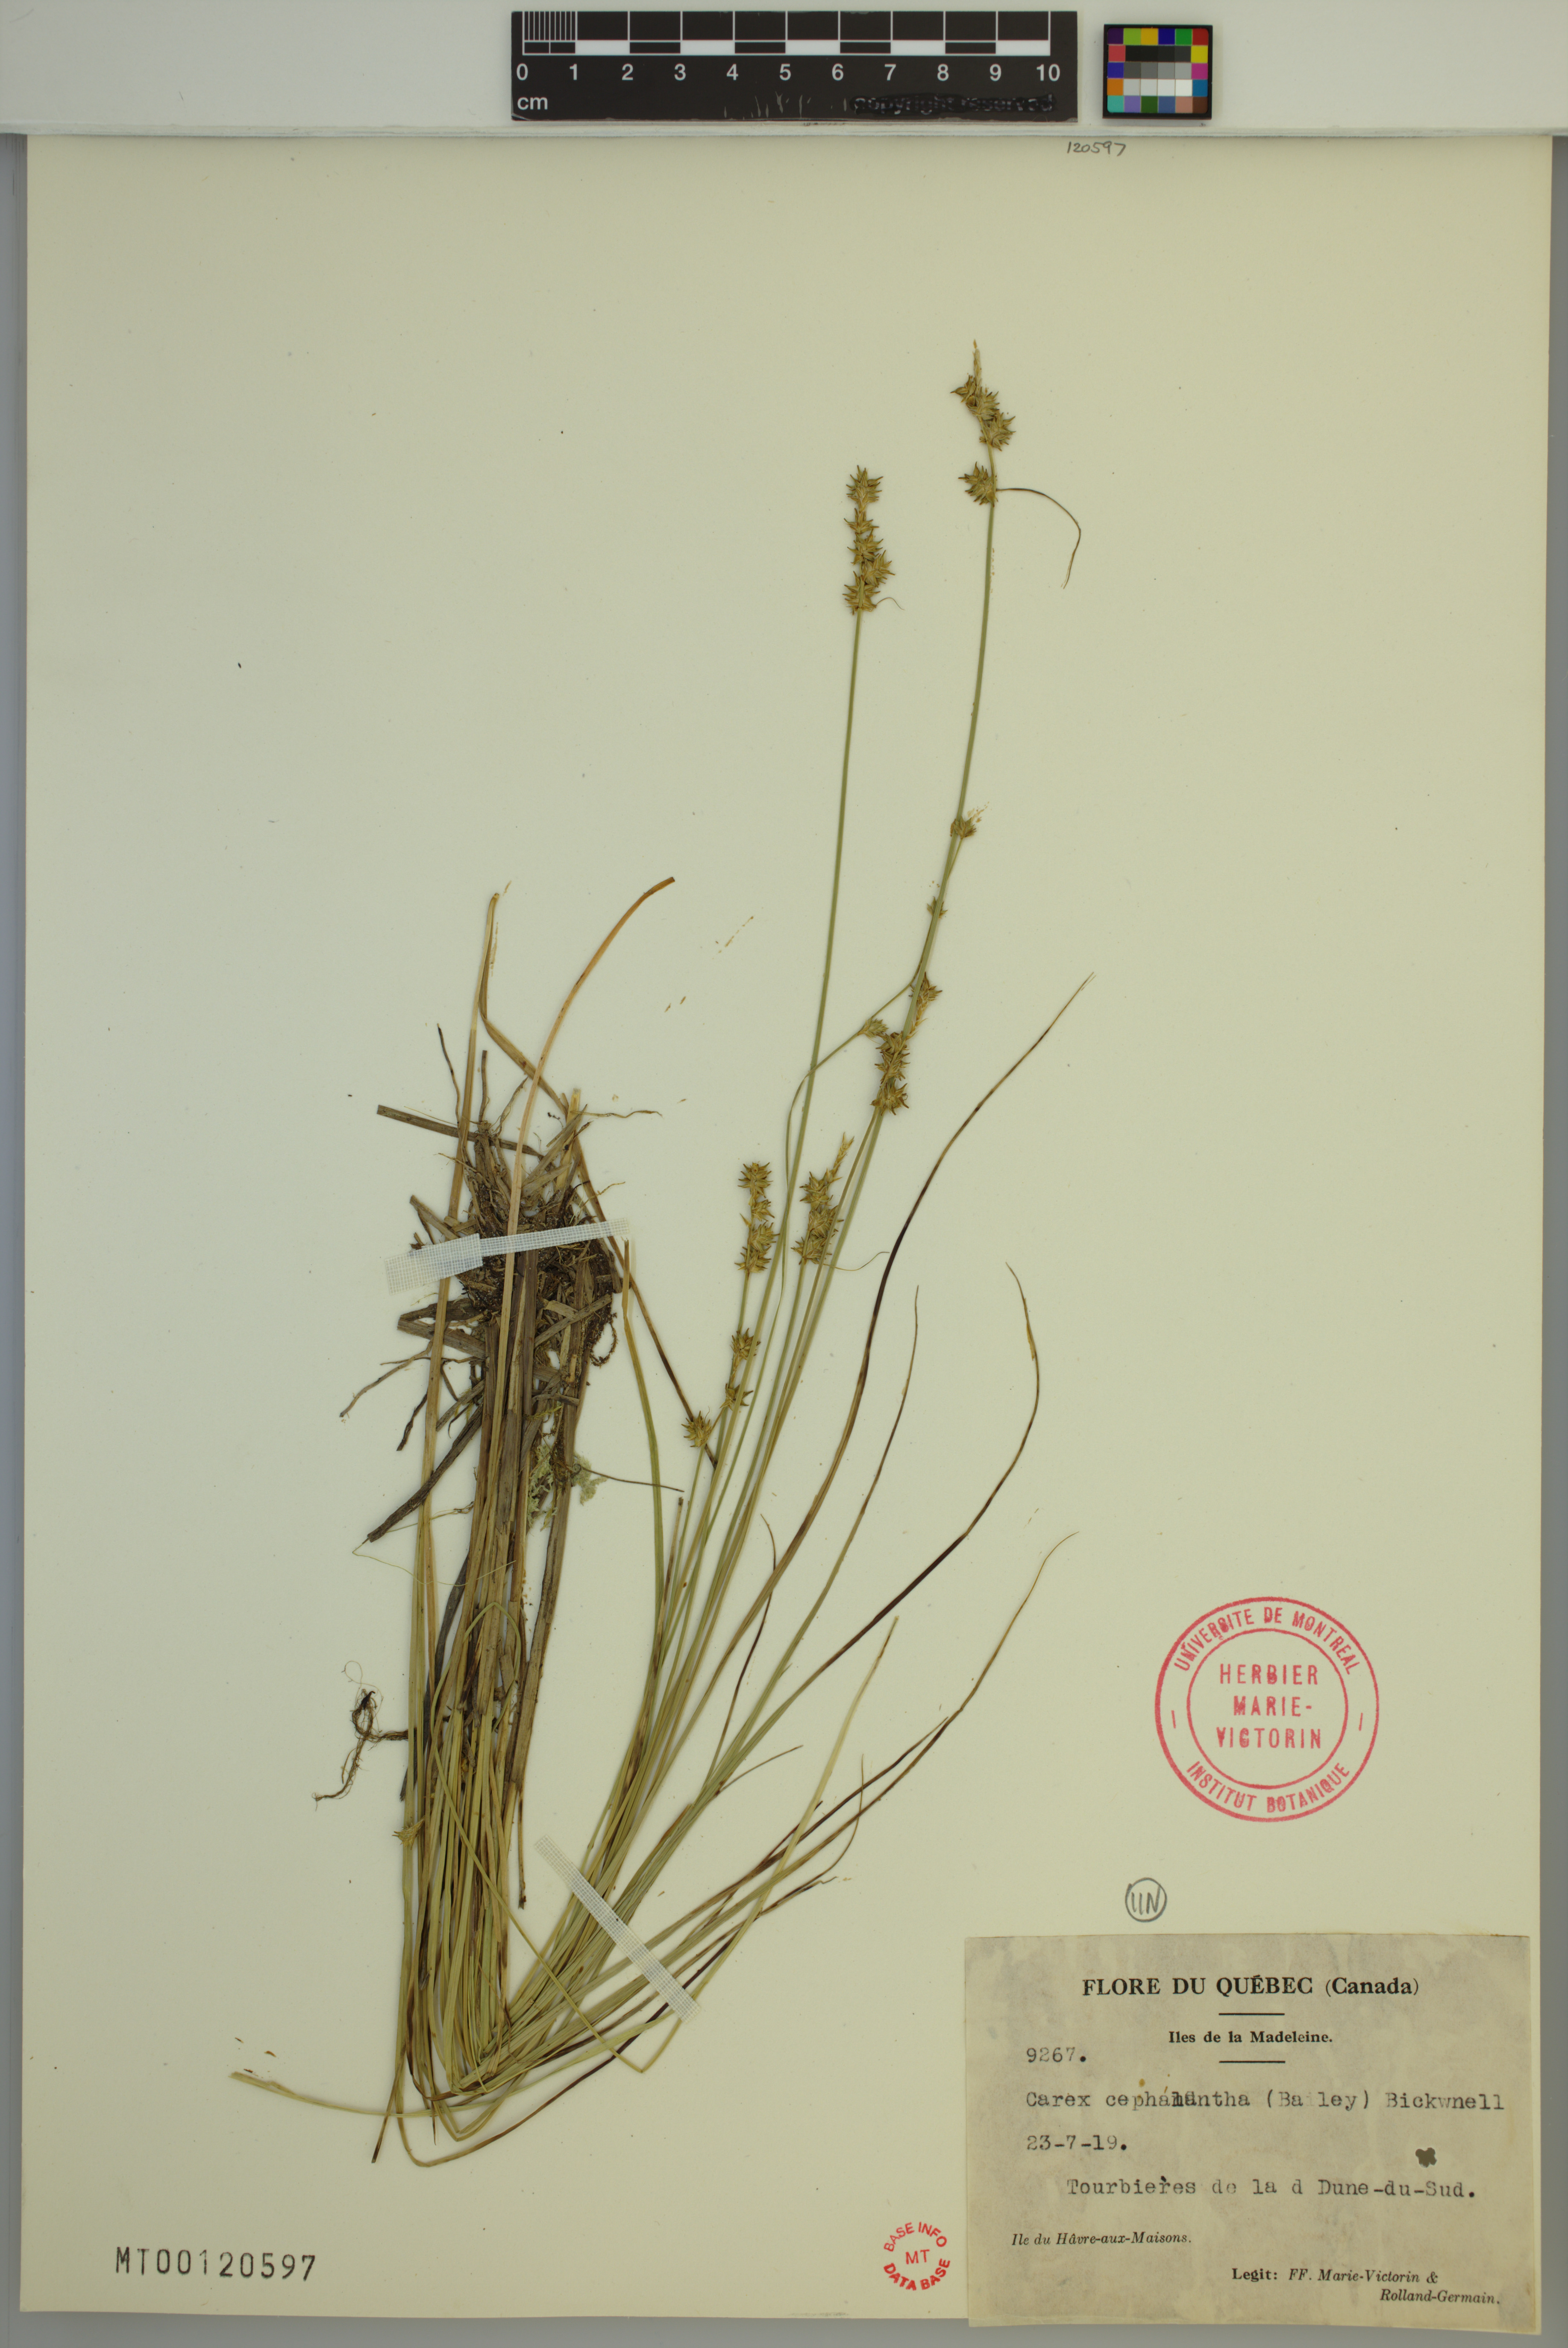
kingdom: Plantae
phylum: Tracheophyta
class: Liliopsida
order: Poales
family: Cyperaceae
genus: Carex
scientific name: Carex echinata
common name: Star sedge
